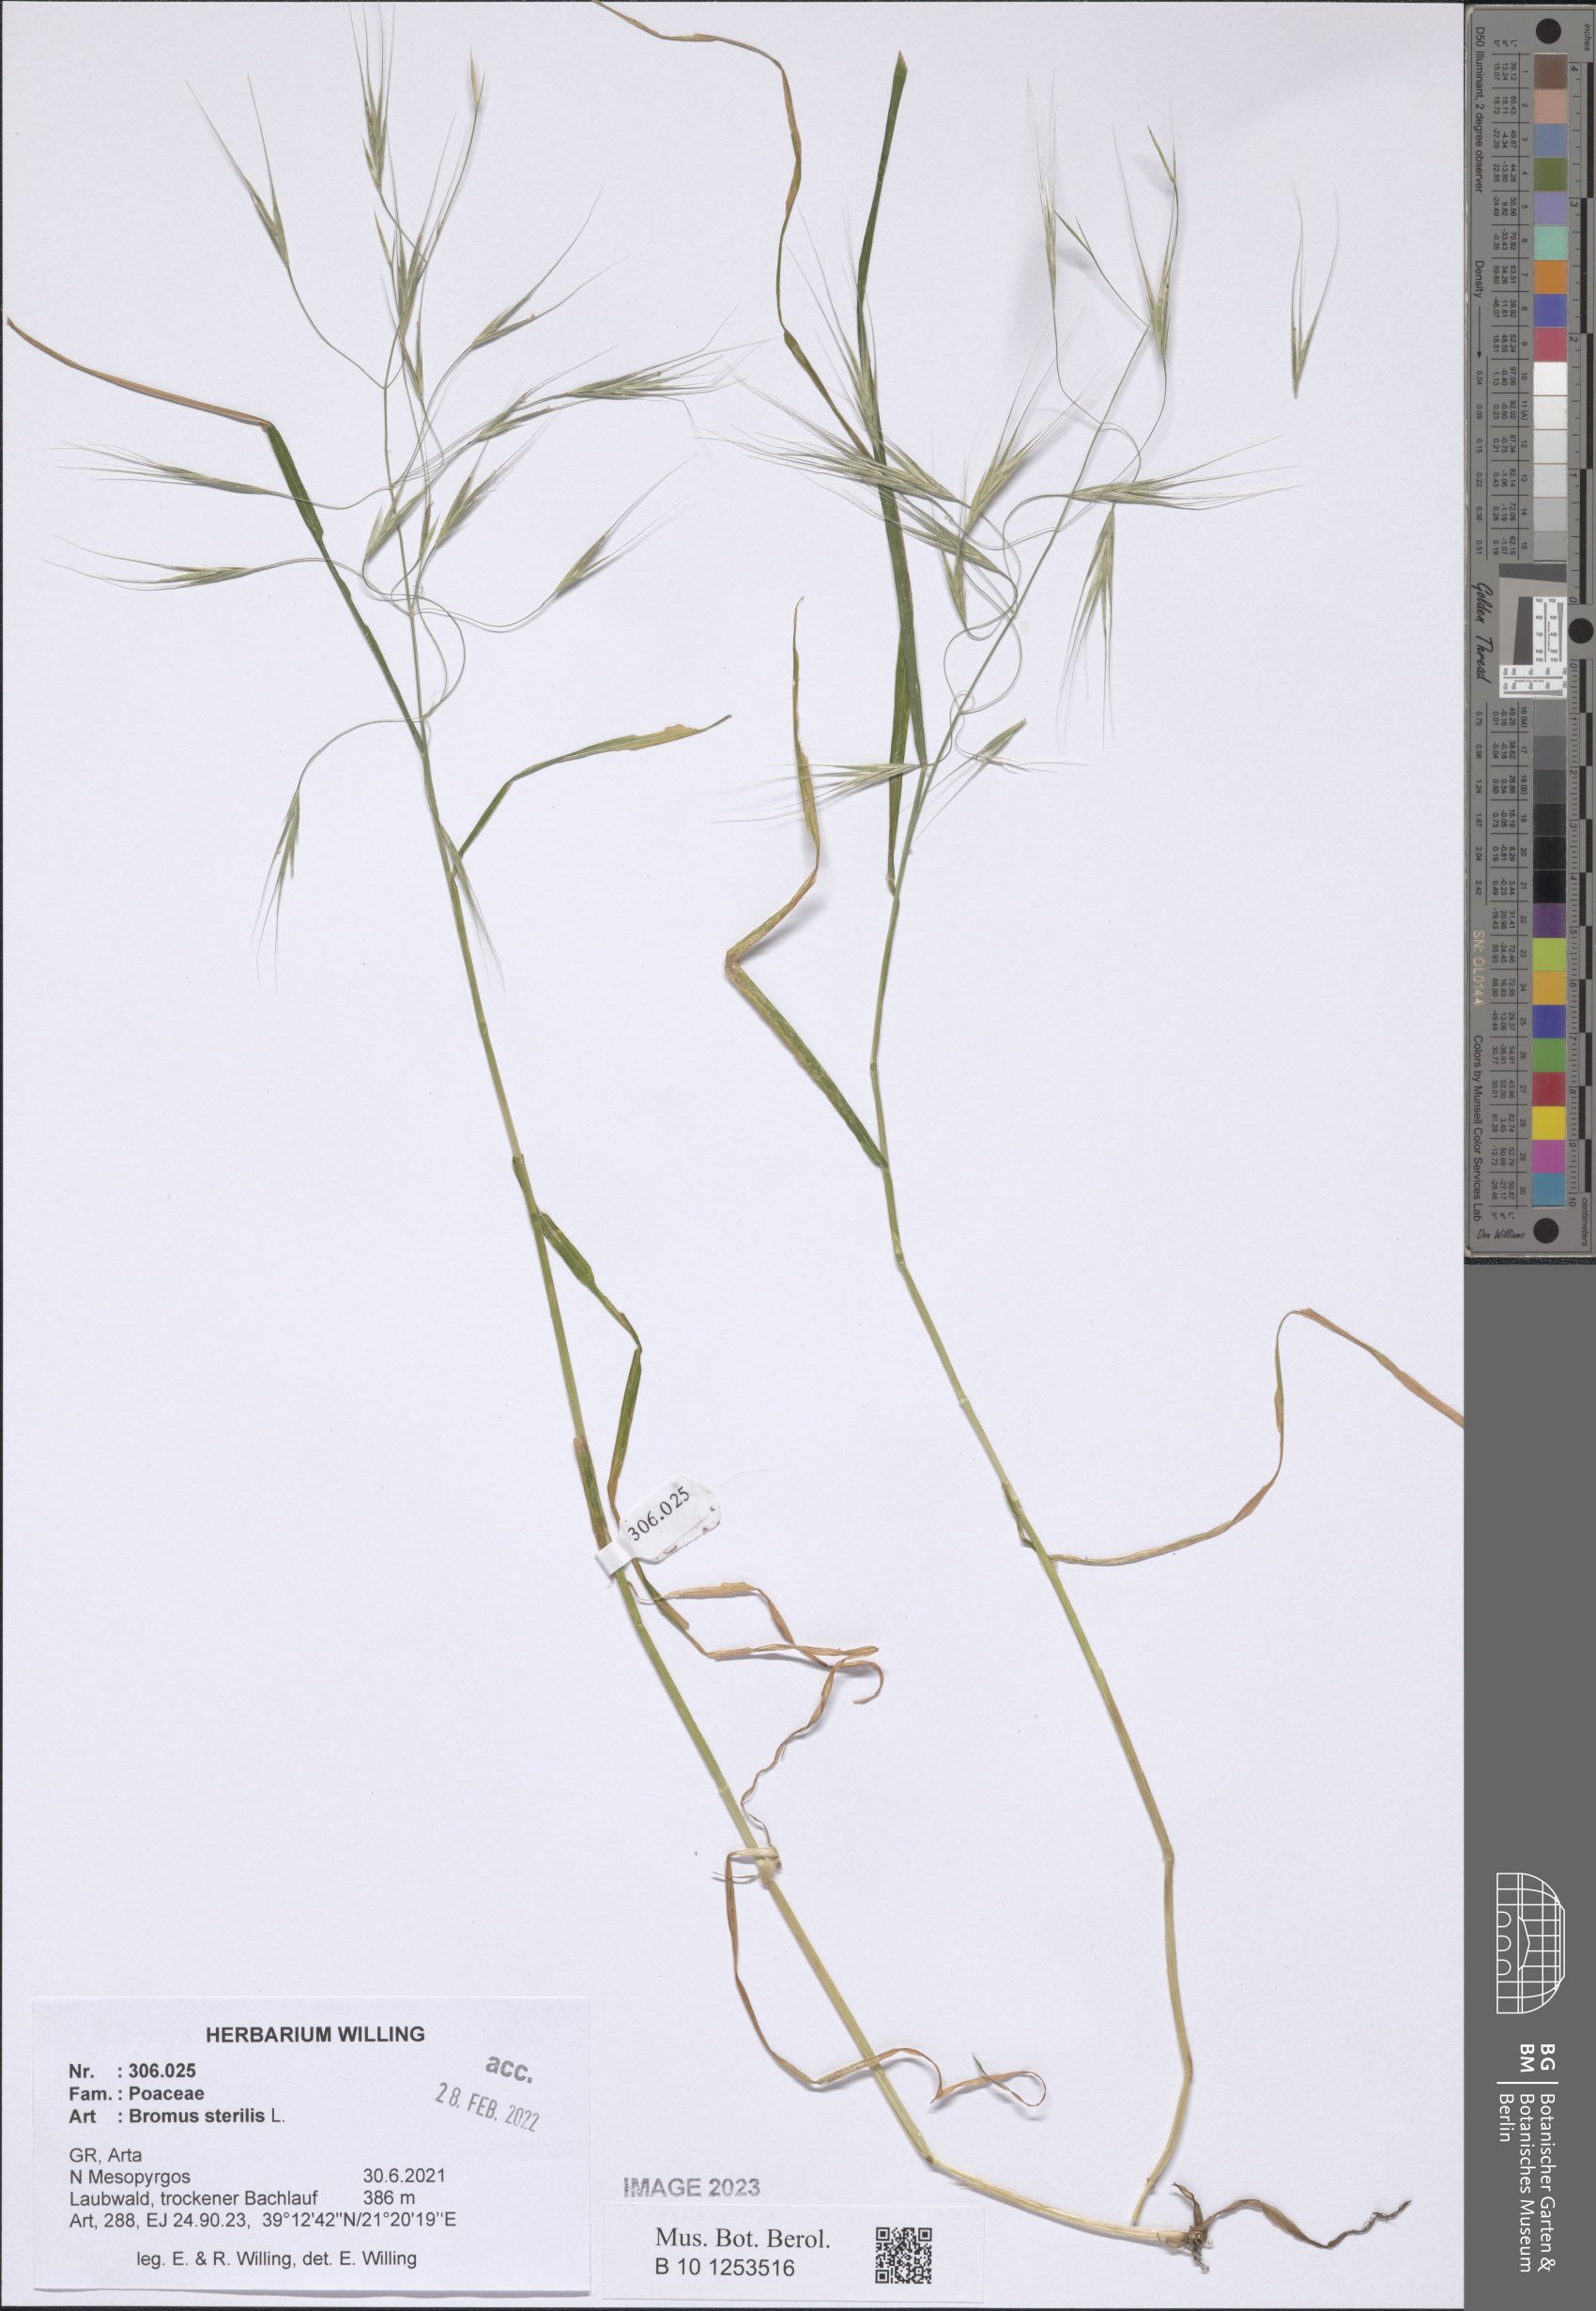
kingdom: Plantae
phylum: Tracheophyta
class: Liliopsida
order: Poales
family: Poaceae
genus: Bromus
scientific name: Bromus sterilis
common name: Poverty brome
